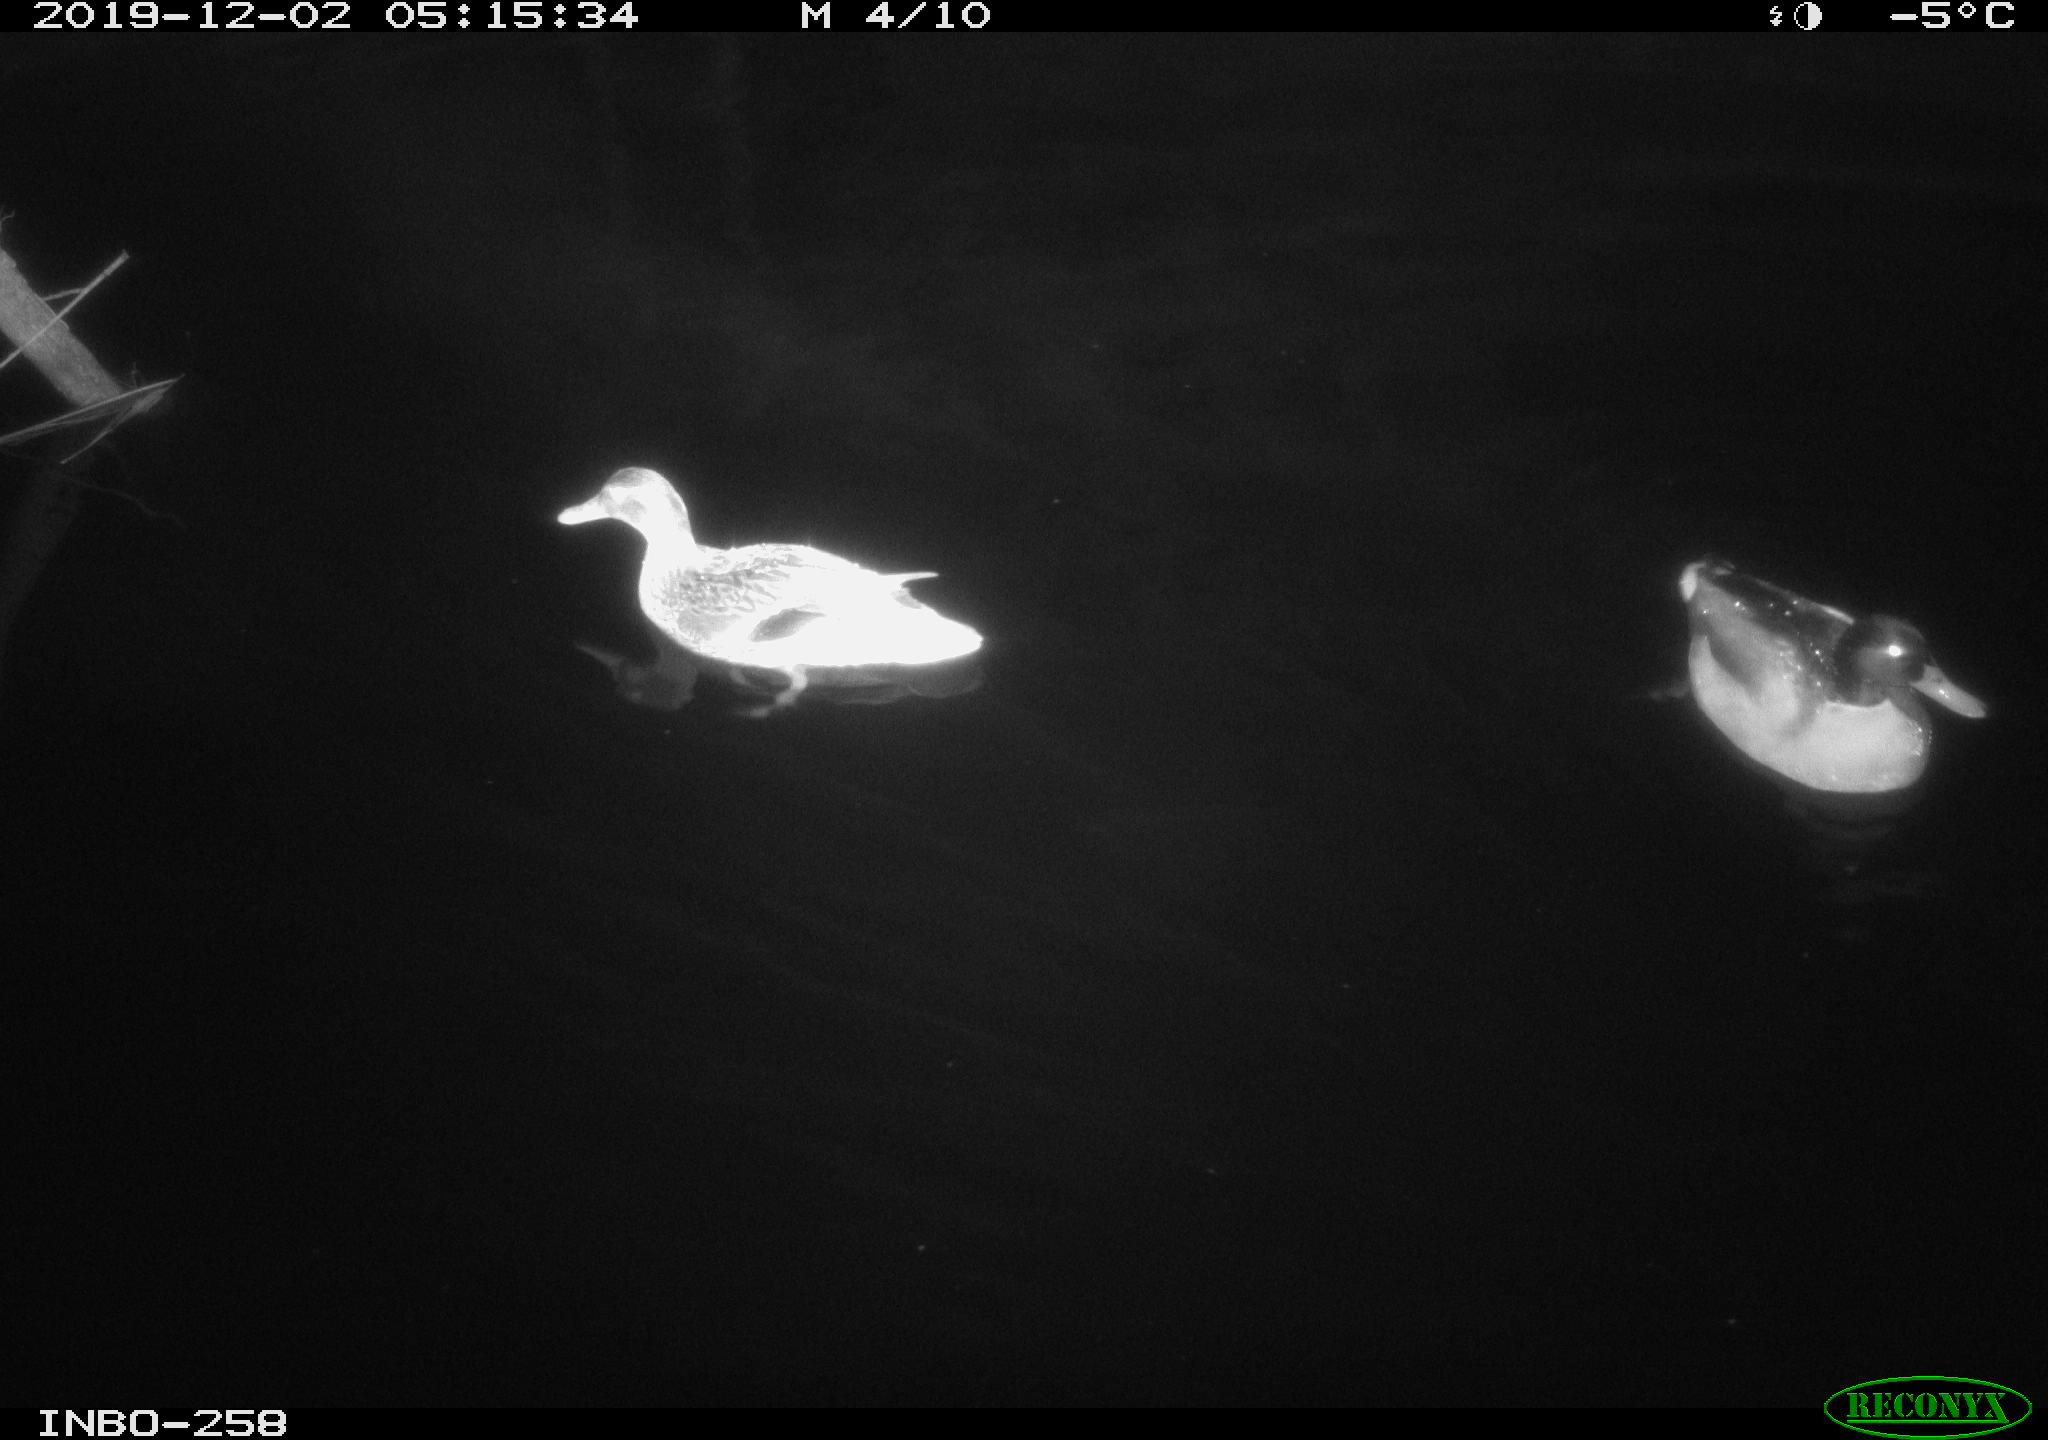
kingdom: Animalia
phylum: Chordata
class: Aves
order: Anseriformes
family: Anatidae
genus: Anas
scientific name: Anas platyrhynchos
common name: Mallard
